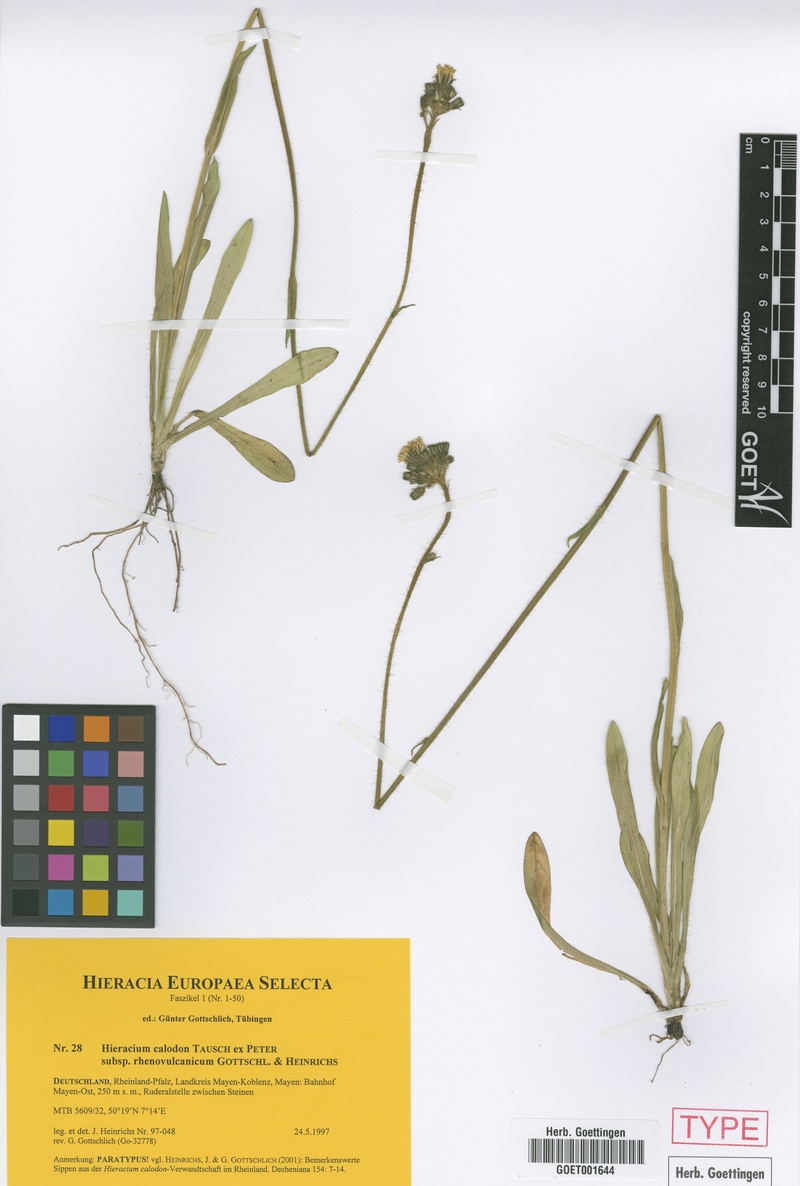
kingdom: Plantae
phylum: Tracheophyta
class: Magnoliopsida
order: Asterales
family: Asteraceae
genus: Pilosella
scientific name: Pilosella calodon
